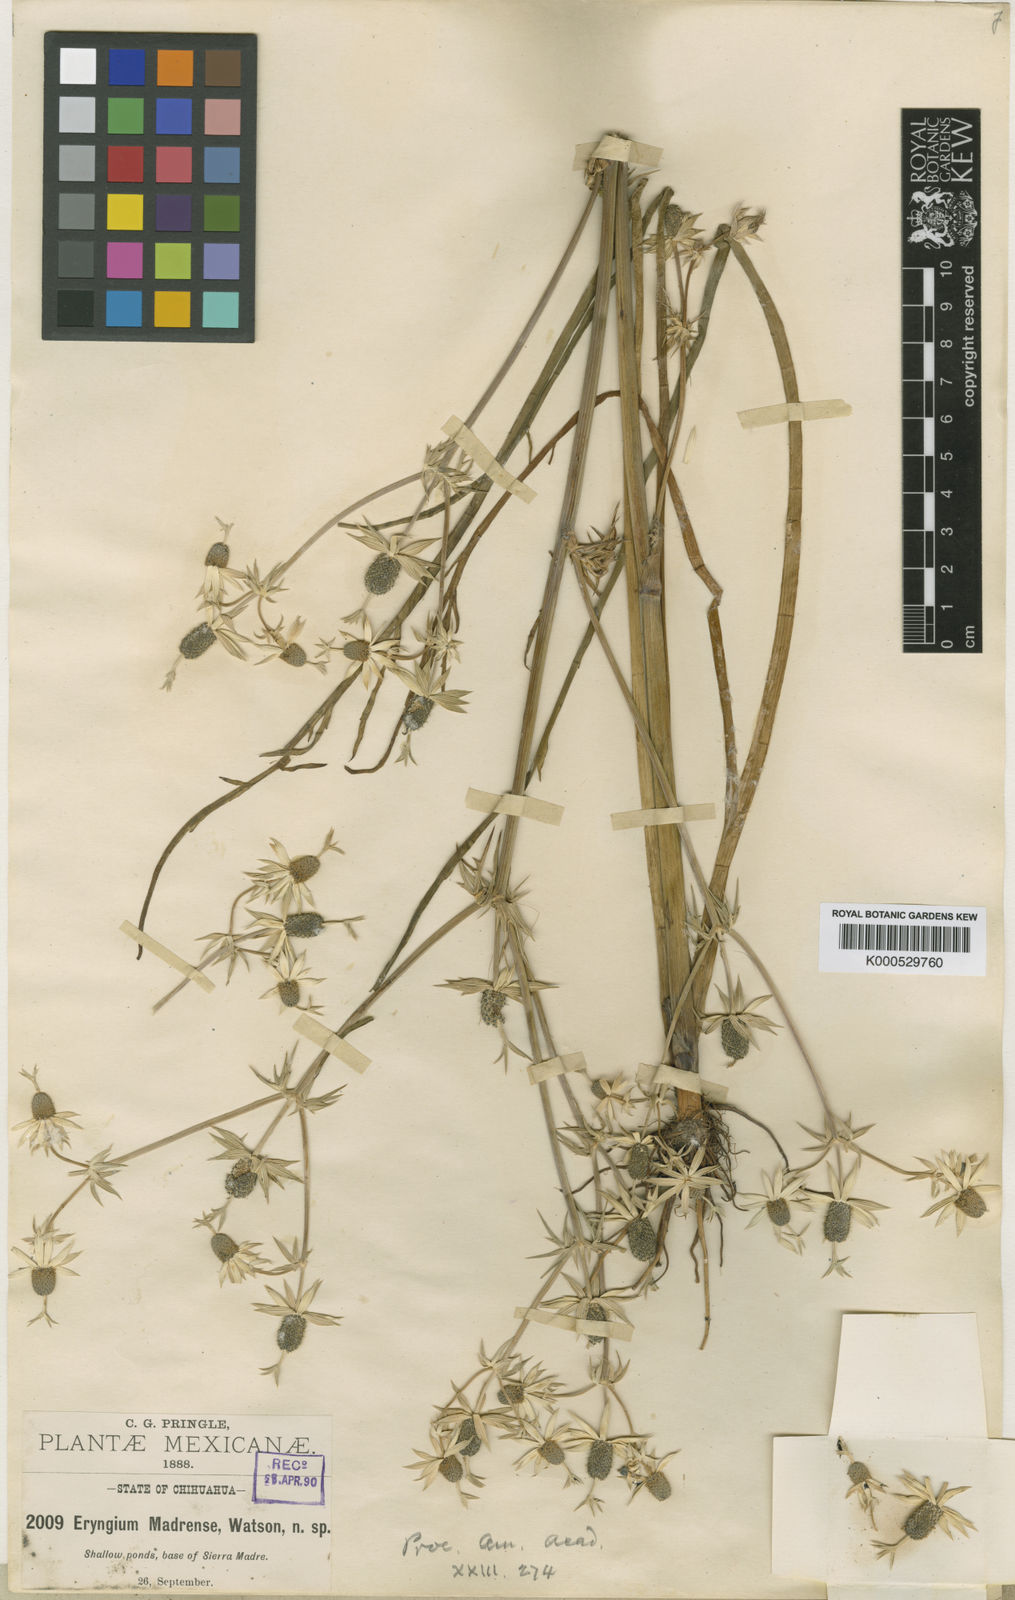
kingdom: Plantae
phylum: Tracheophyta
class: Magnoliopsida
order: Apiales
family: Apiaceae
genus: Eryngium
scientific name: Eryngium madrense
